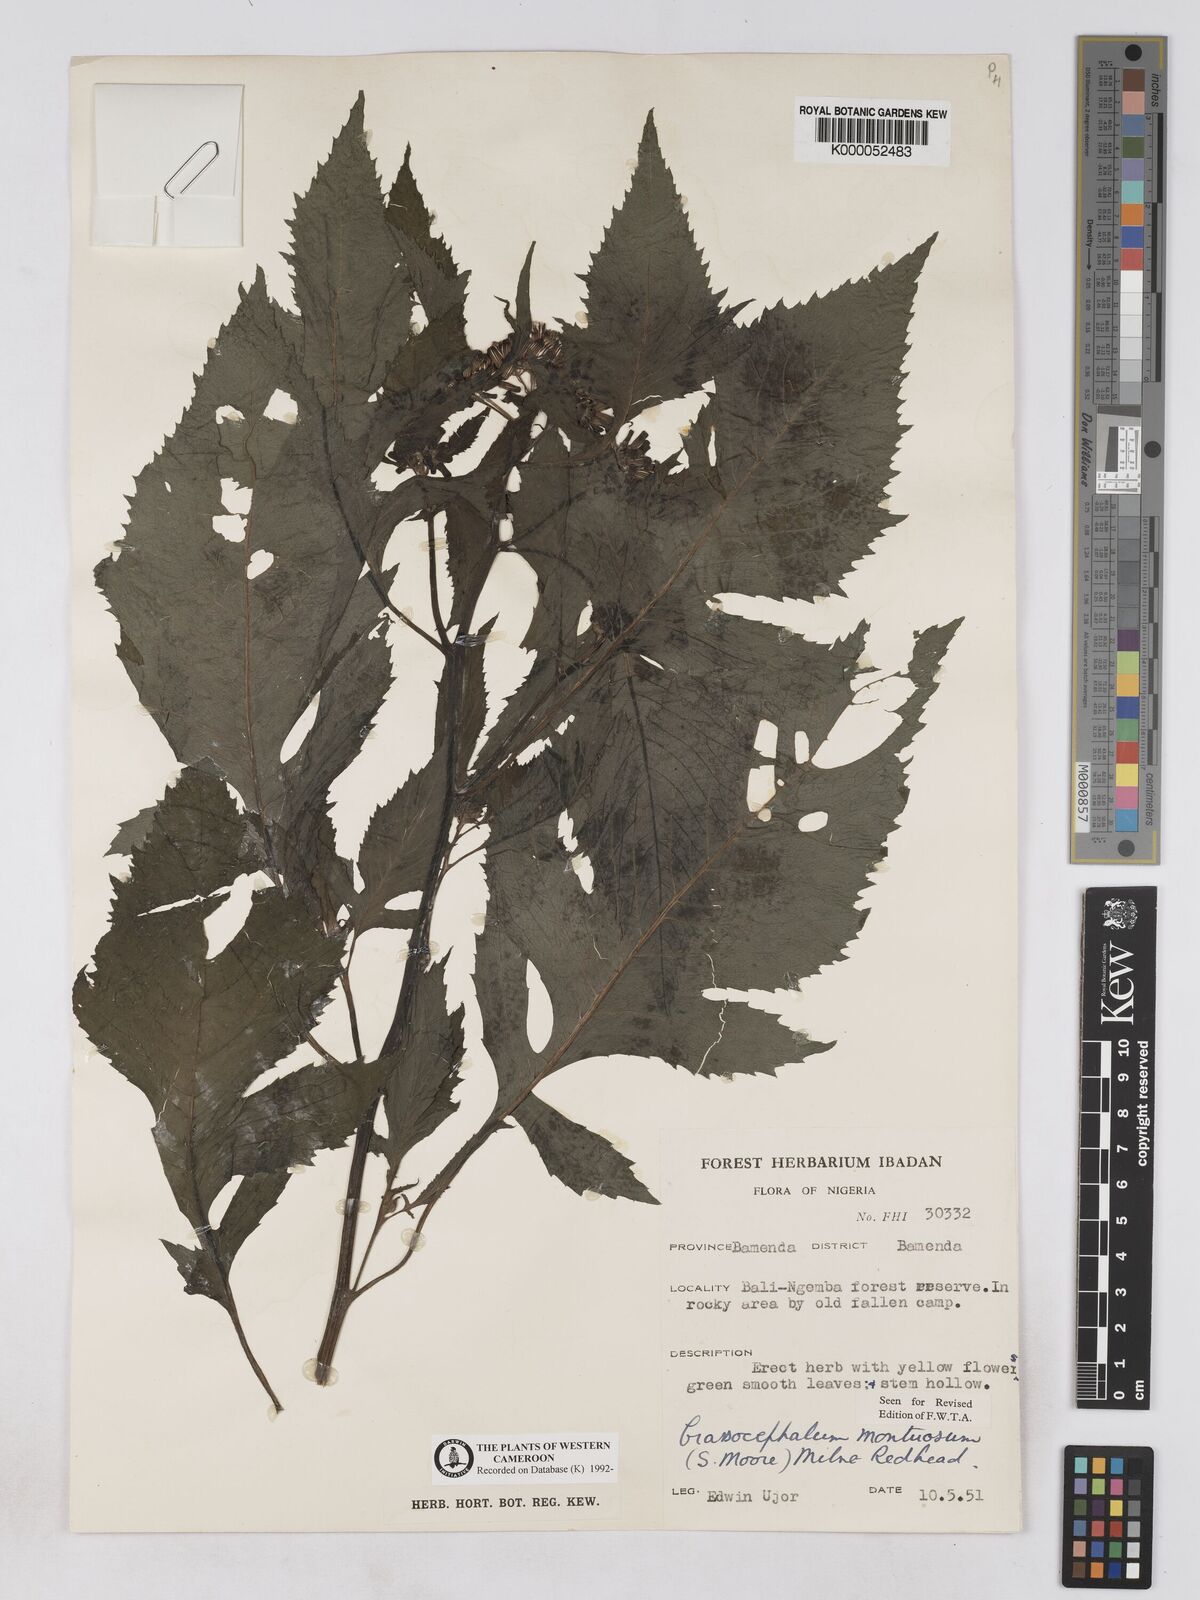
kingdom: Plantae
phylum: Tracheophyta
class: Magnoliopsida
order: Asterales
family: Asteraceae
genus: Crassocephalum
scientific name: Crassocephalum montuosum
